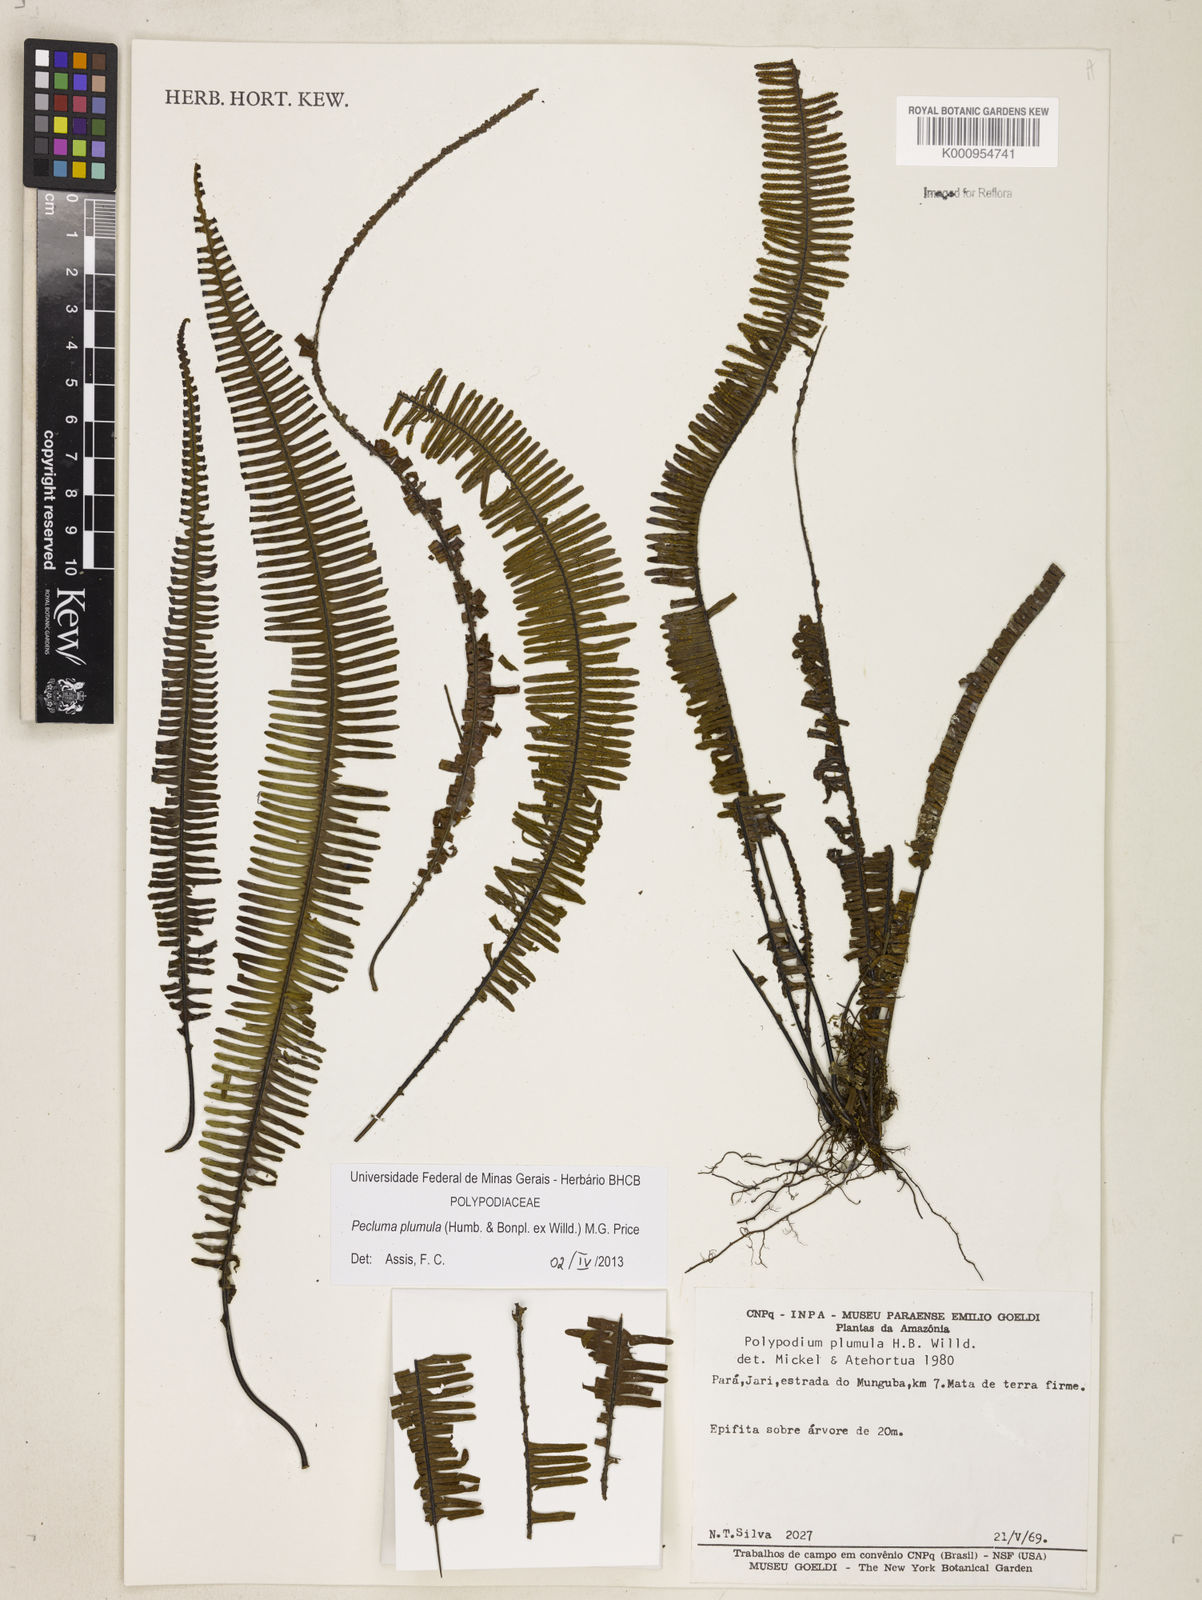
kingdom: Plantae
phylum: Tracheophyta
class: Polypodiopsida
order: Polypodiales
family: Polypodiaceae
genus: Pecluma
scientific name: Pecluma plumula
